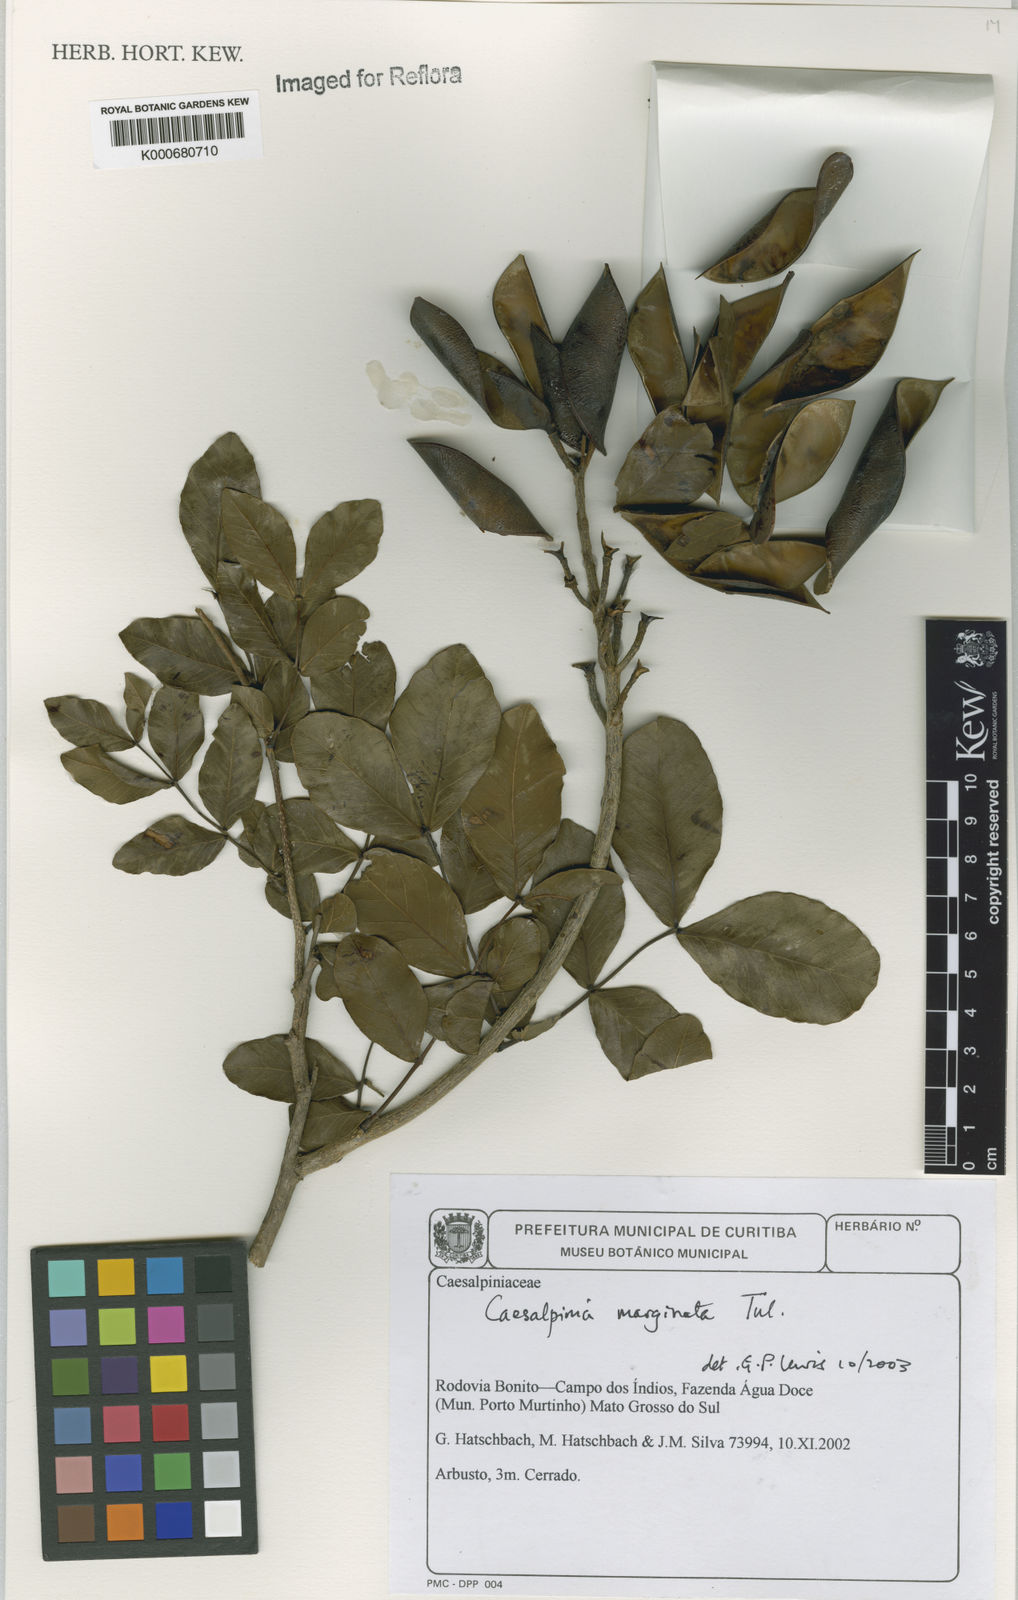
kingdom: Plantae
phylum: Tracheophyta
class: Magnoliopsida
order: Fabales
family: Fabaceae
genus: Cenostigma
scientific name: Cenostigma marginatum
